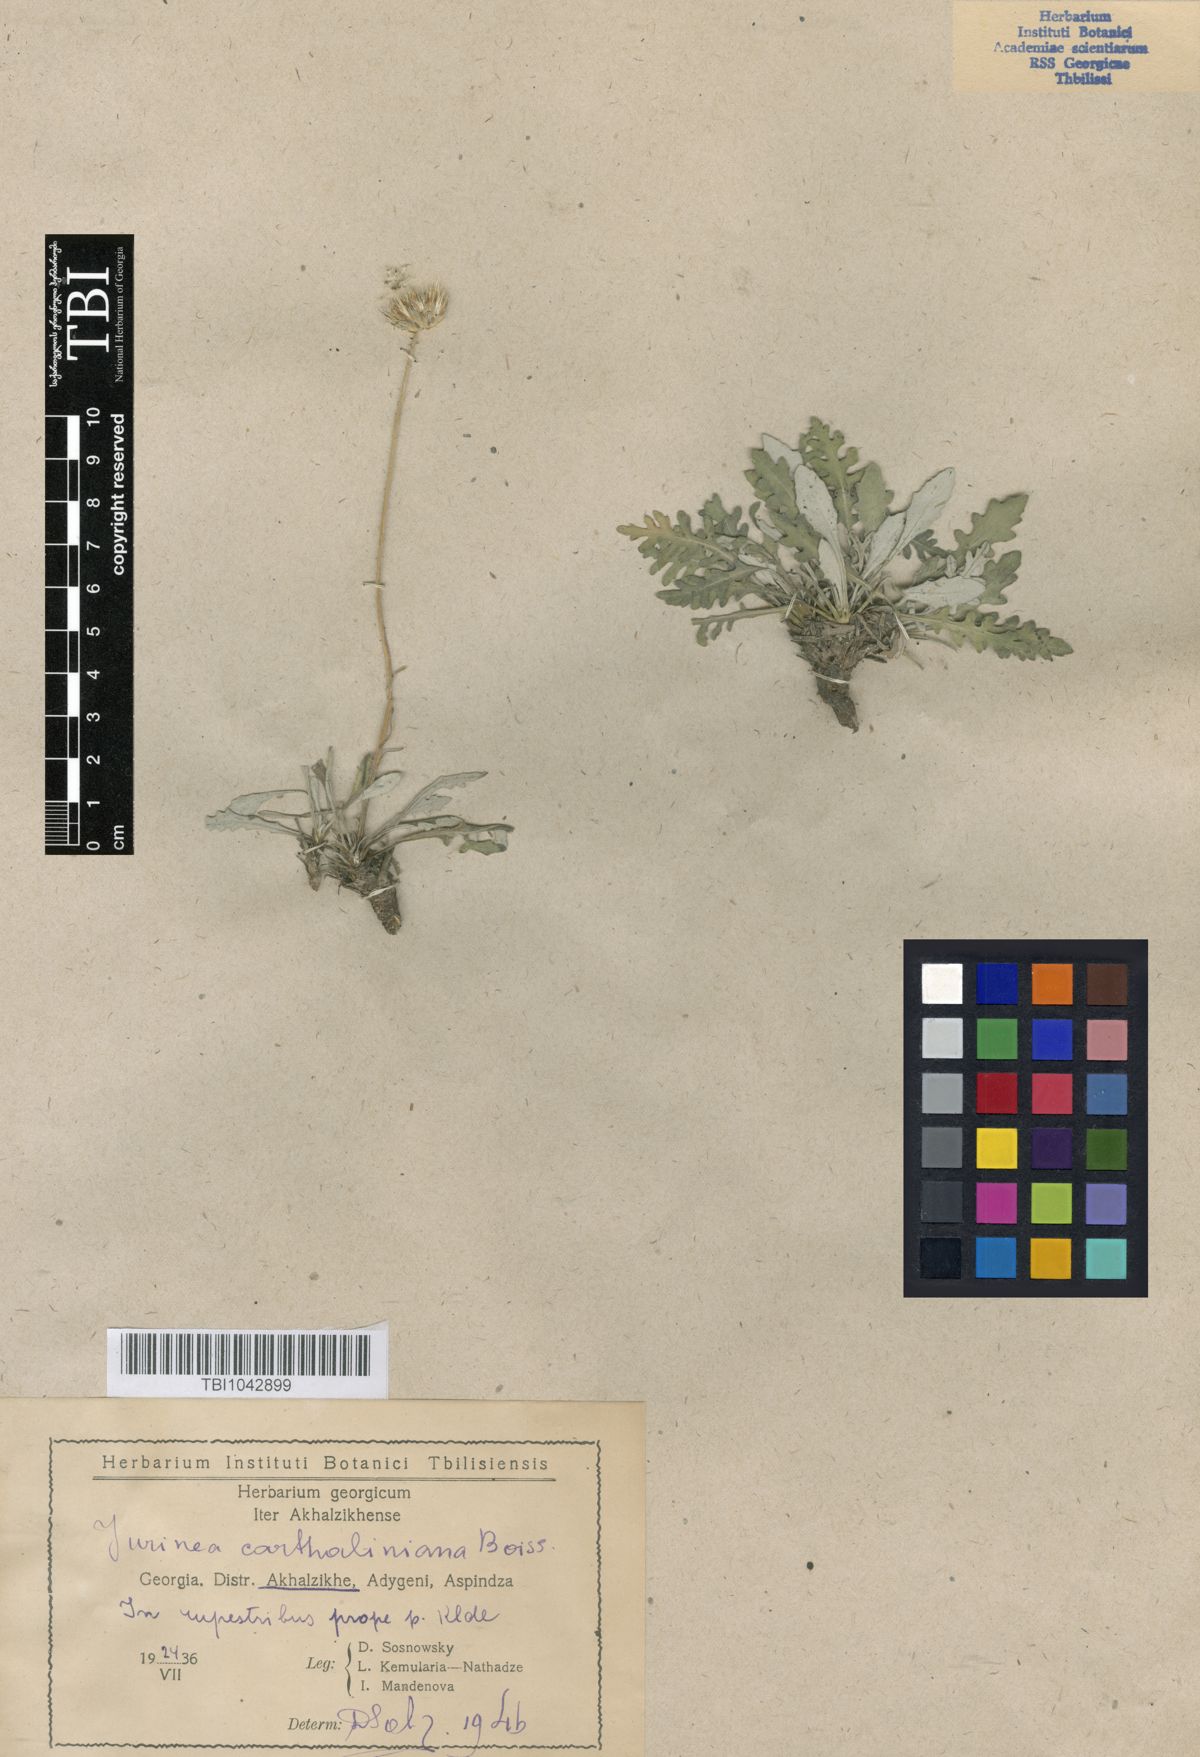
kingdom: Plantae
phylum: Tracheophyta
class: Magnoliopsida
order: Asterales
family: Asteraceae
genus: Jurinea
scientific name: Jurinea cartaliniana
